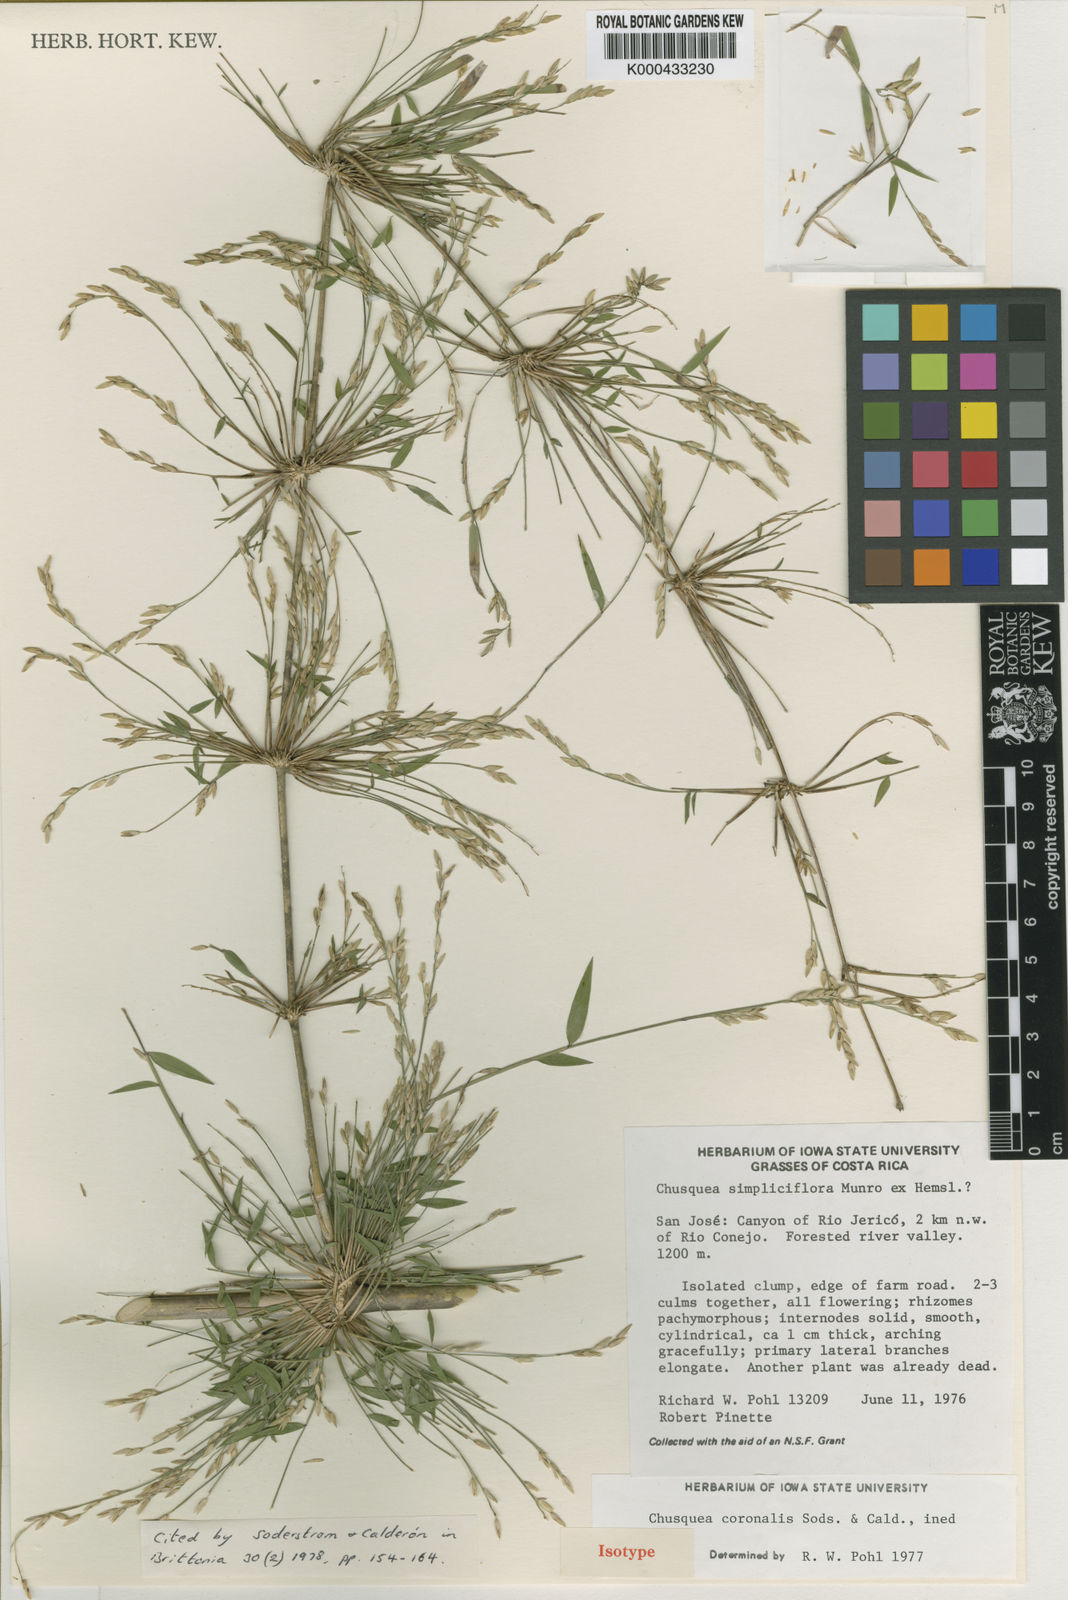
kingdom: Plantae
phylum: Tracheophyta
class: Liliopsida
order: Poales
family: Poaceae
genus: Chusquea
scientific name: Chusquea coronalis
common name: Machris bamboo
